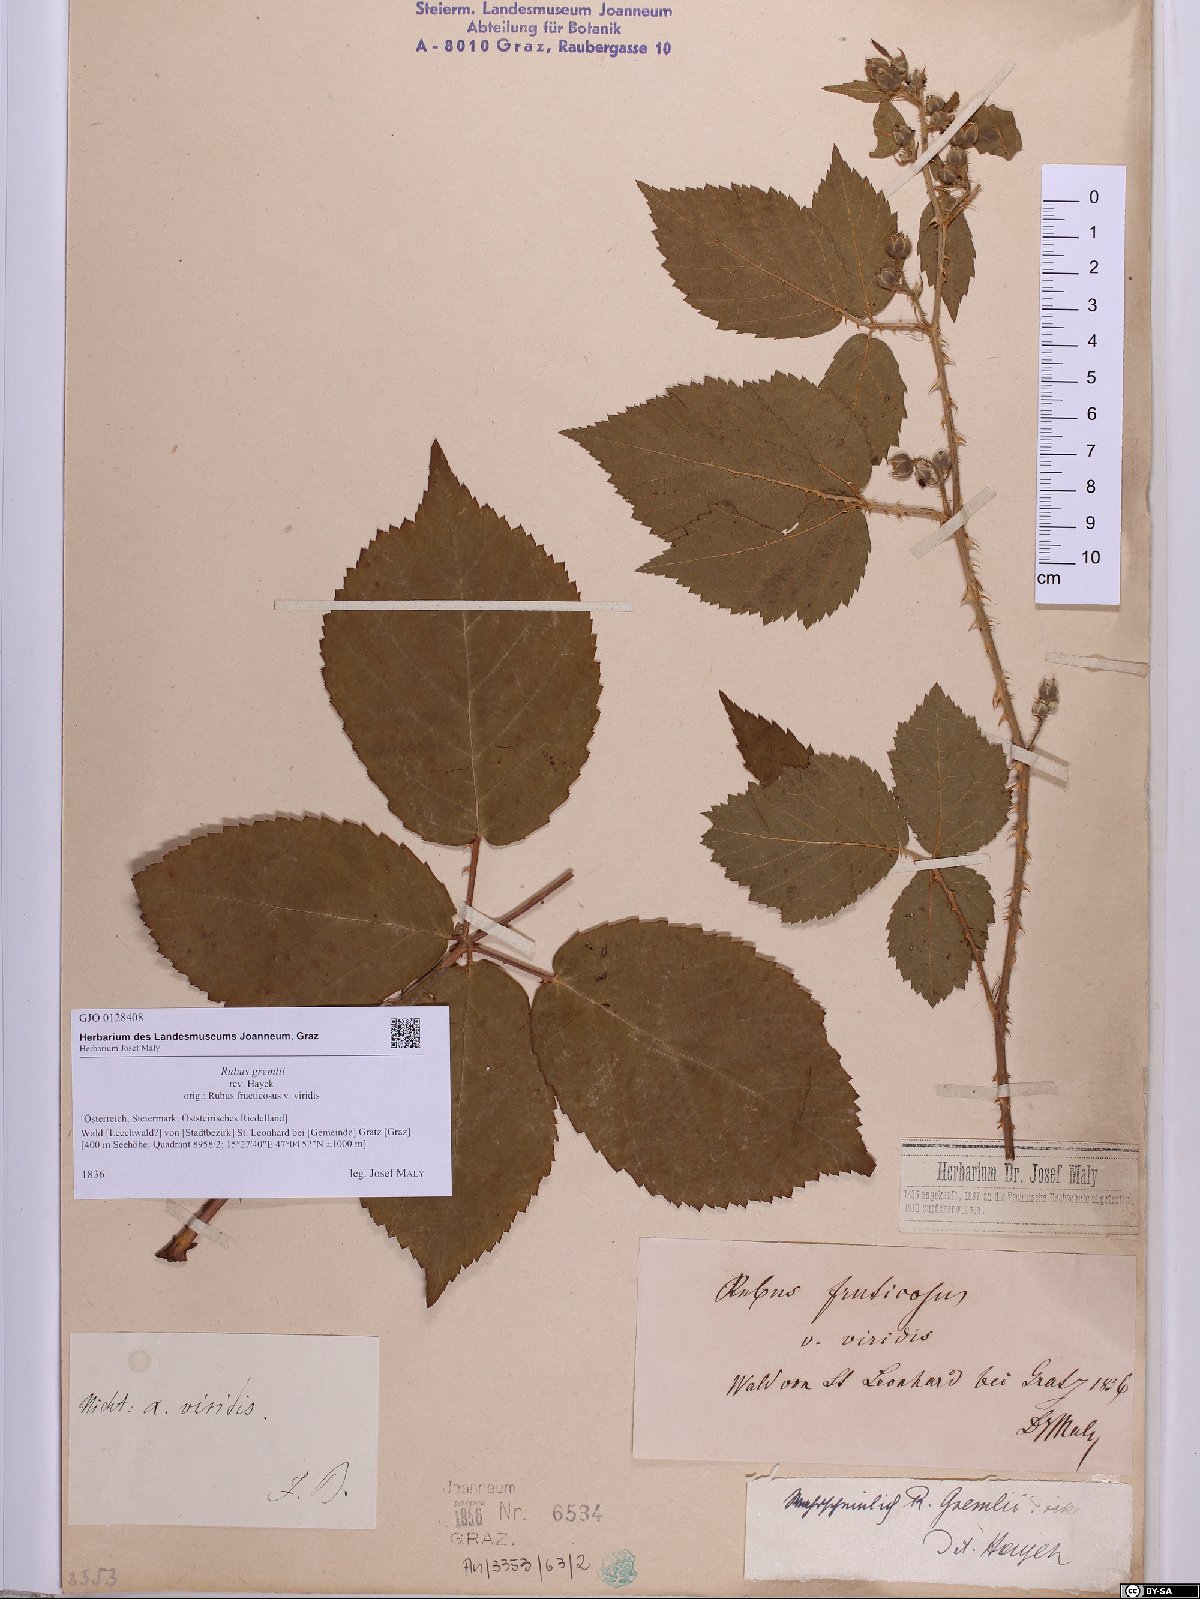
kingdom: Plantae
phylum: Tracheophyta
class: Magnoliopsida
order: Rosales
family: Rosaceae
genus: Rubus
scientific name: Rubus gremlii
